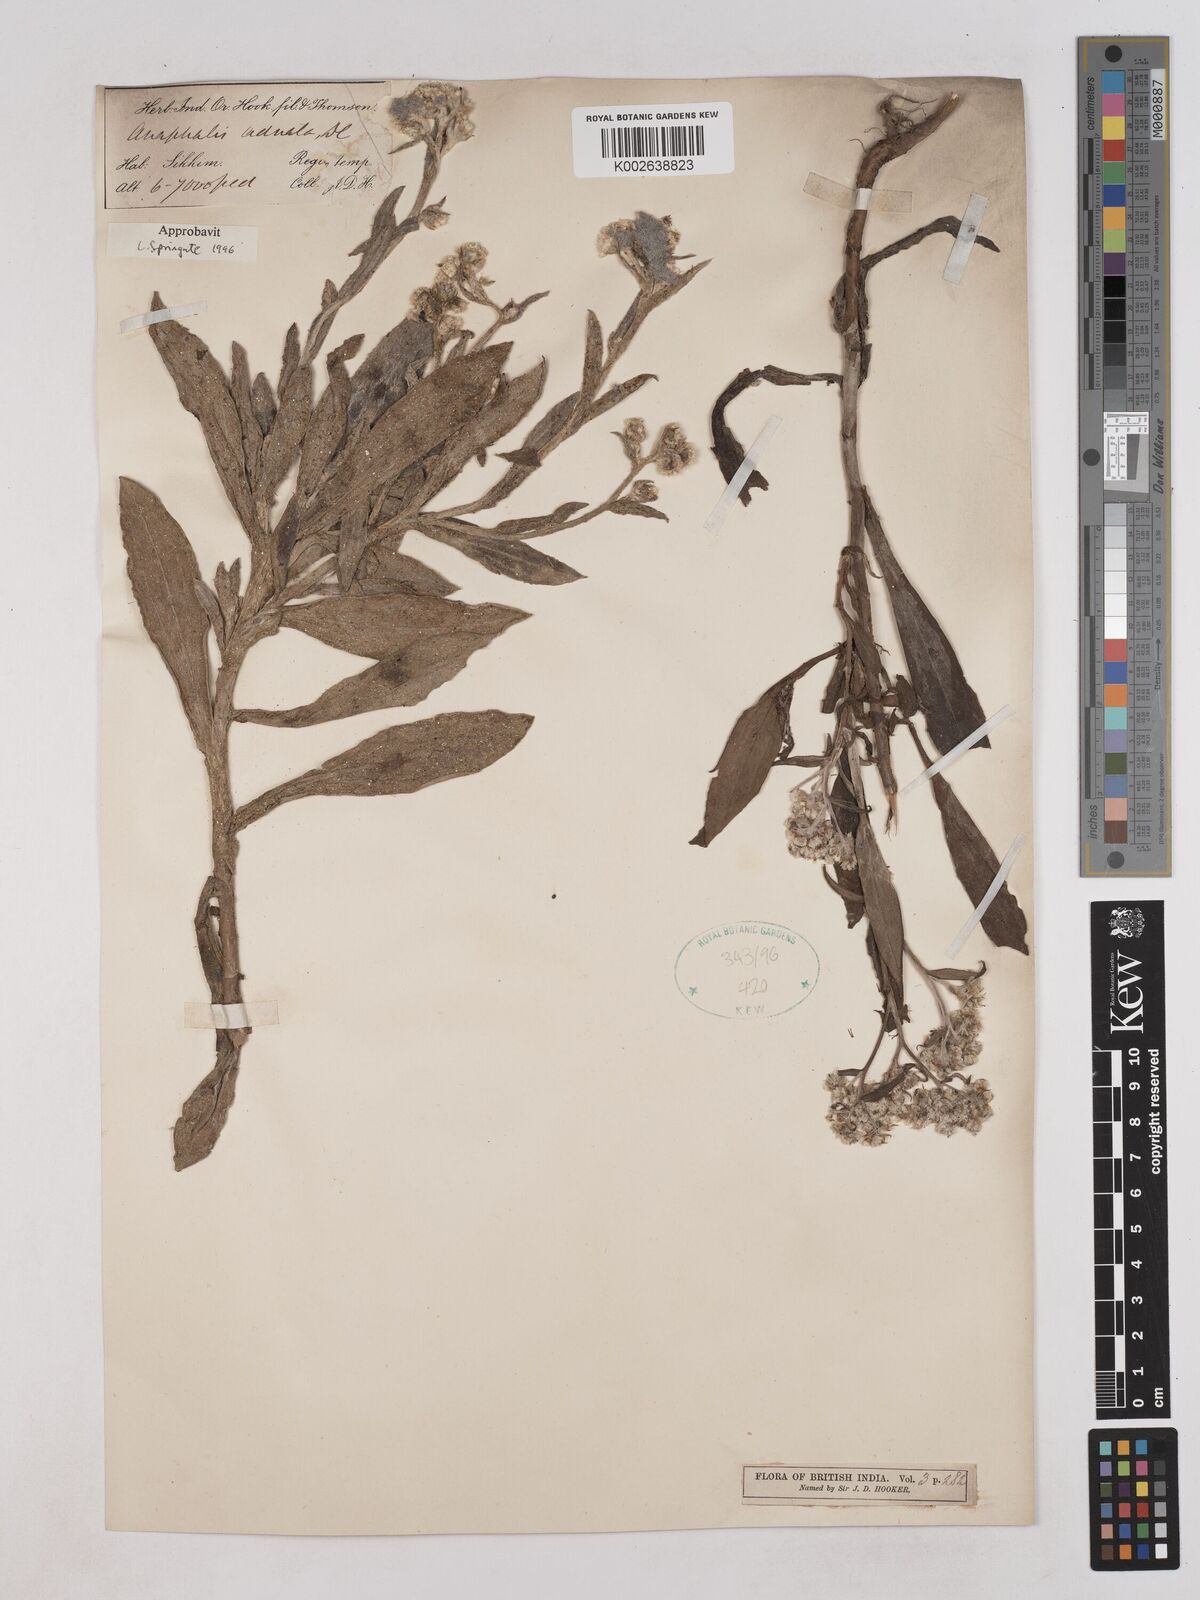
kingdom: Plantae
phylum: Tracheophyta
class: Magnoliopsida
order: Asterales
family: Asteraceae
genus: Pseudognaphalium
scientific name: Pseudognaphalium adnatum
